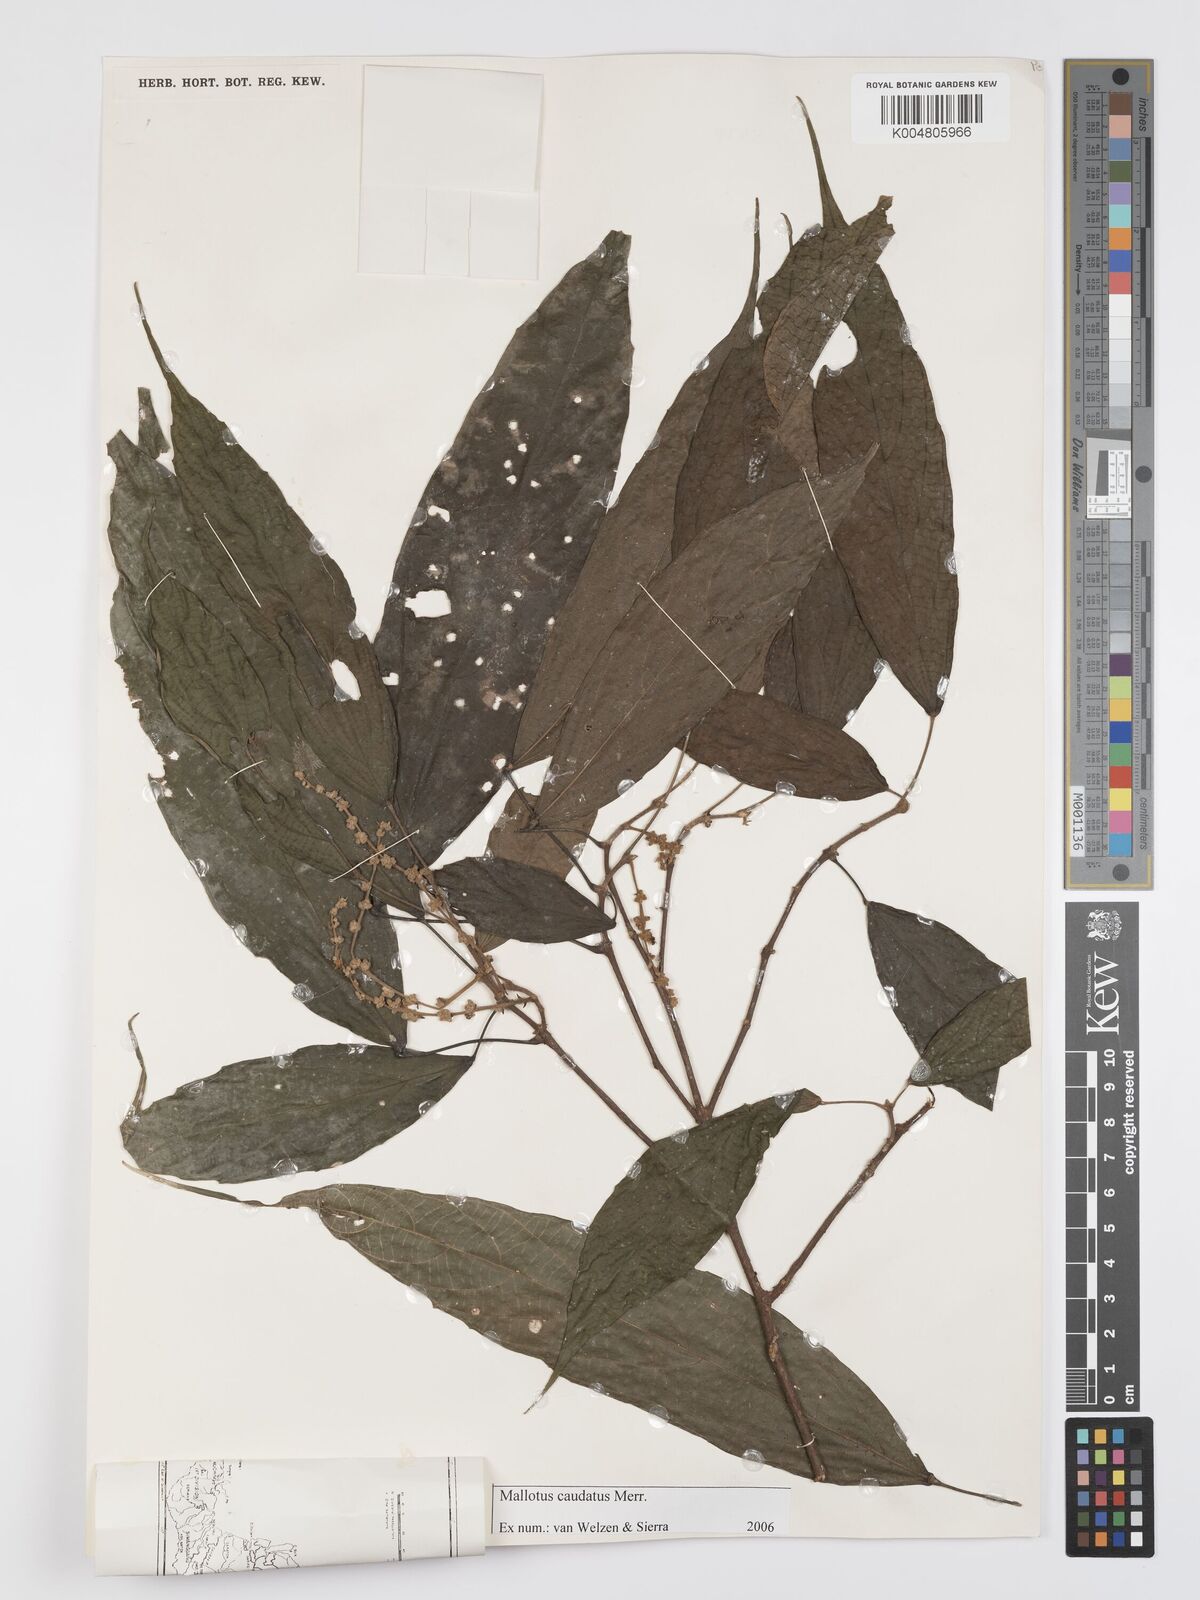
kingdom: Plantae
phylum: Tracheophyta
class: Magnoliopsida
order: Malpighiales
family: Euphorbiaceae
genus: Mallotus
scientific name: Mallotus caudatus
